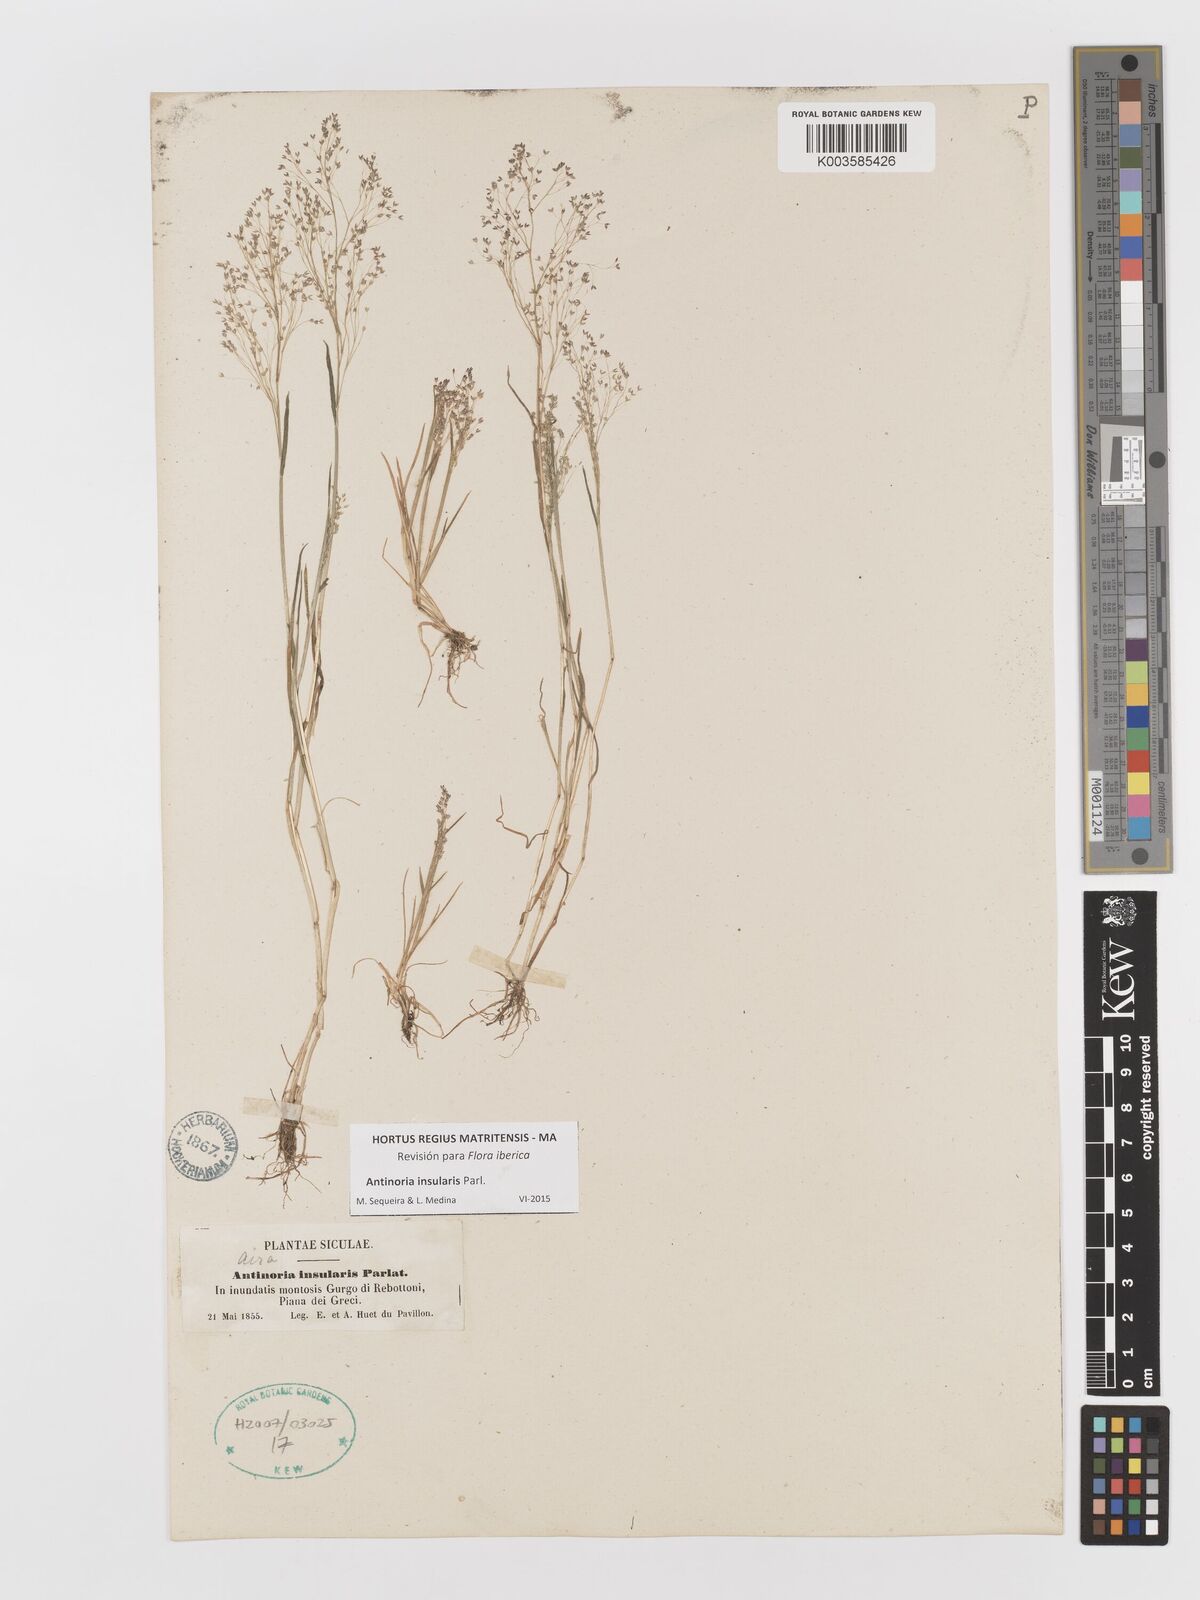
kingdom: Plantae
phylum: Tracheophyta
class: Liliopsida
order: Poales
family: Poaceae
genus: Antinoria
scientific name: Antinoria insularis
